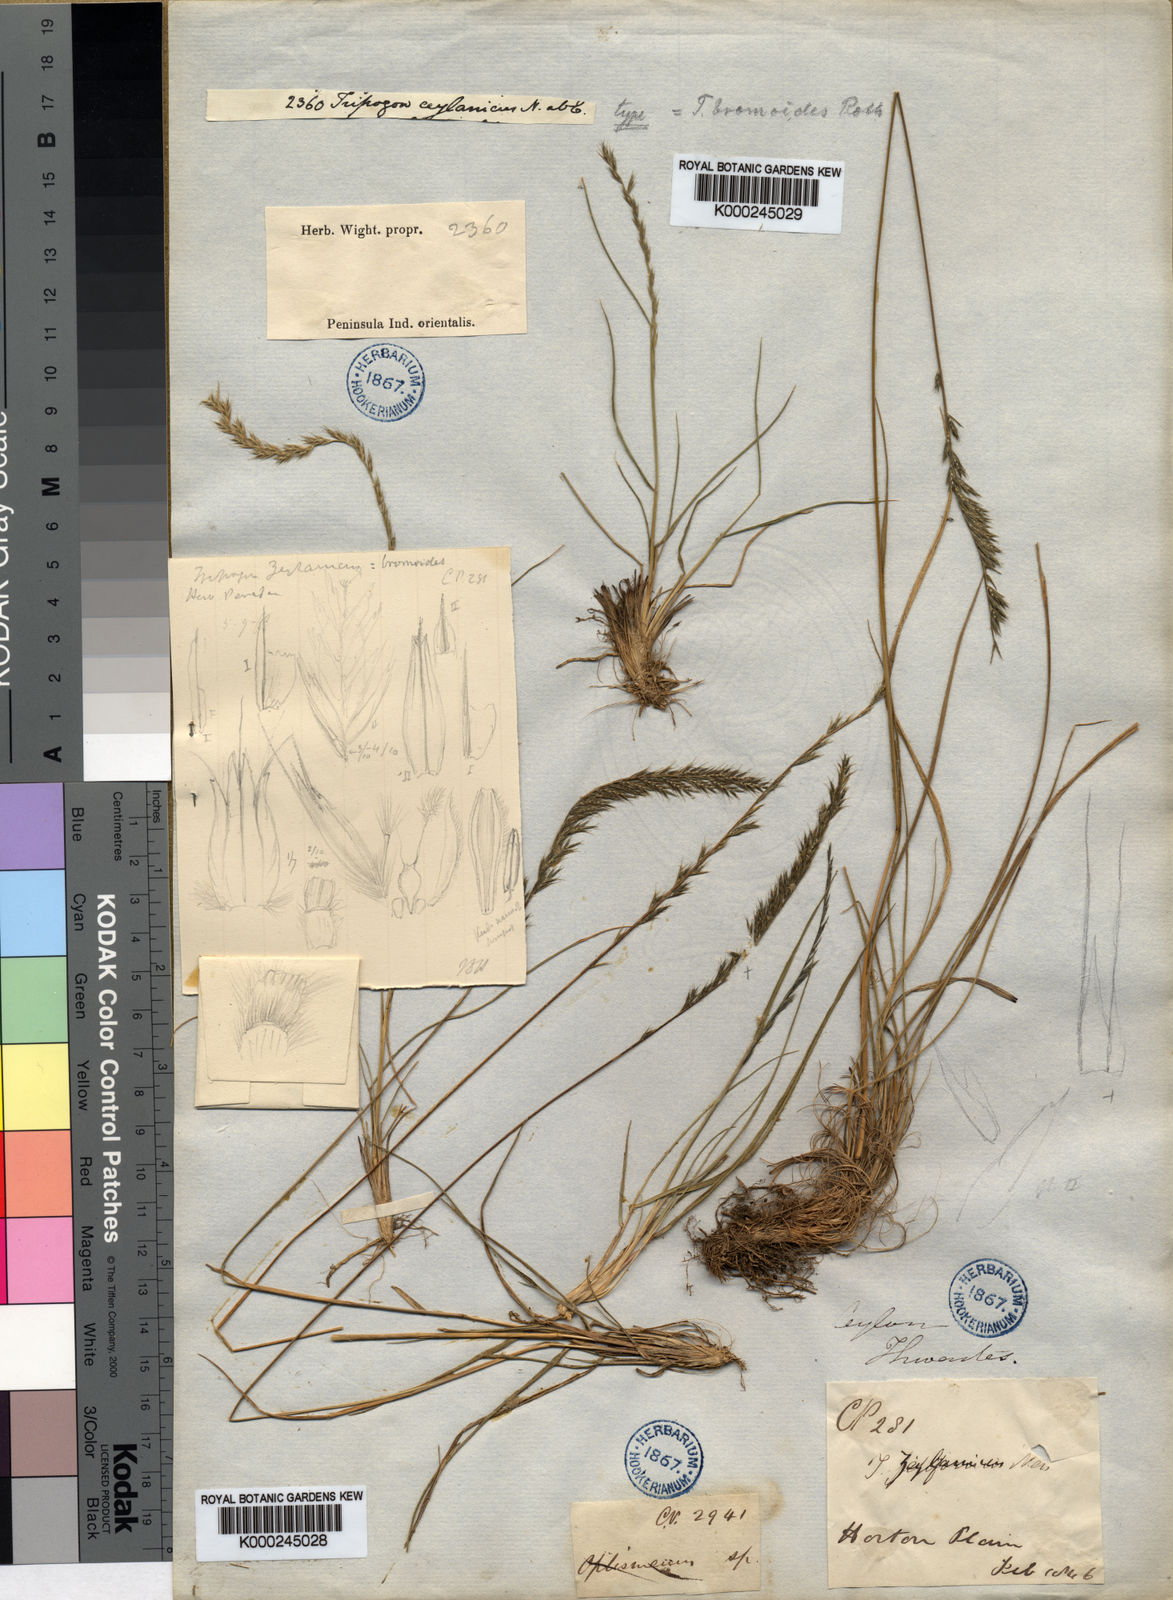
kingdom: Plantae
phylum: Tracheophyta
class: Liliopsida
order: Poales
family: Poaceae
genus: Tripogon
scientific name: Tripogon
